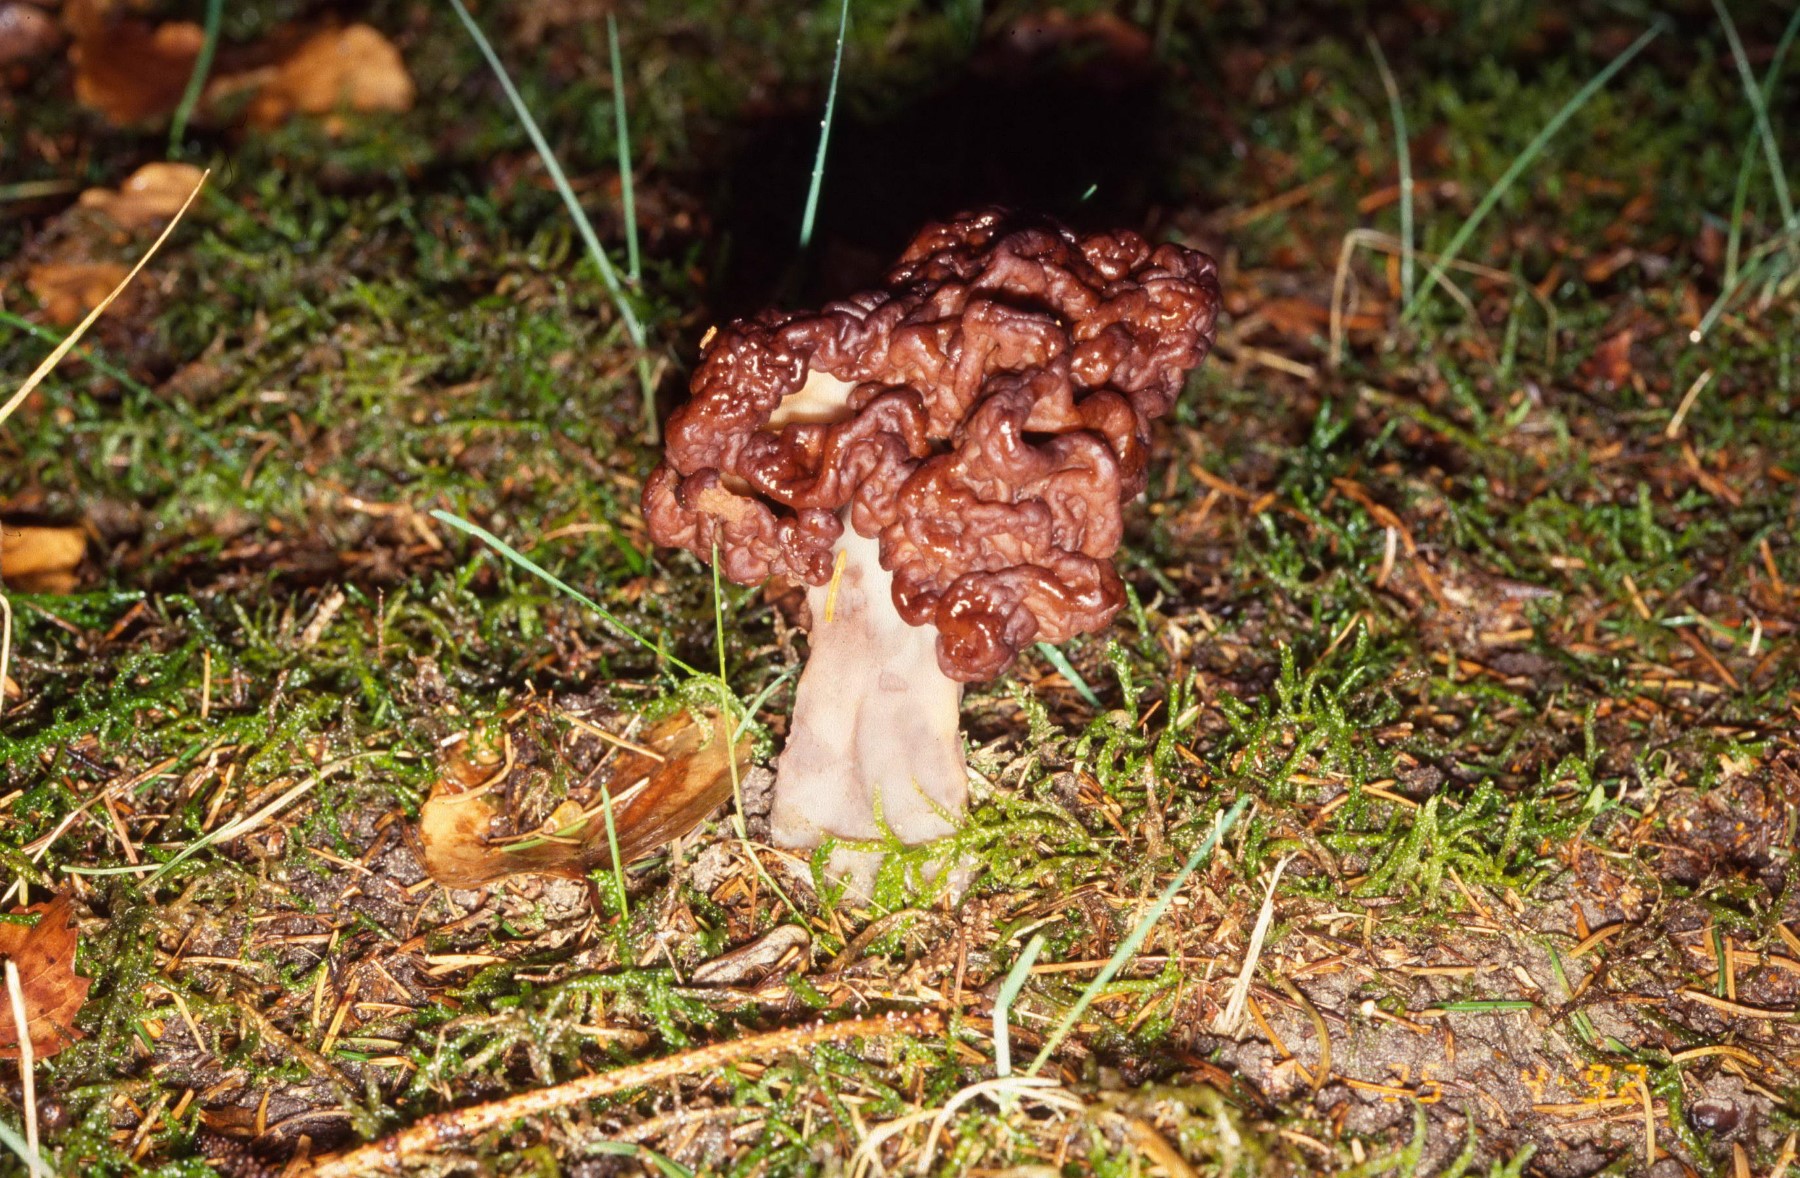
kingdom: Fungi
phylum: Ascomycota
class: Pezizomycetes
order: Pezizales
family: Discinaceae
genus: Gyromitra
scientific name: Gyromitra esculenta
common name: ægte stenmorkel
